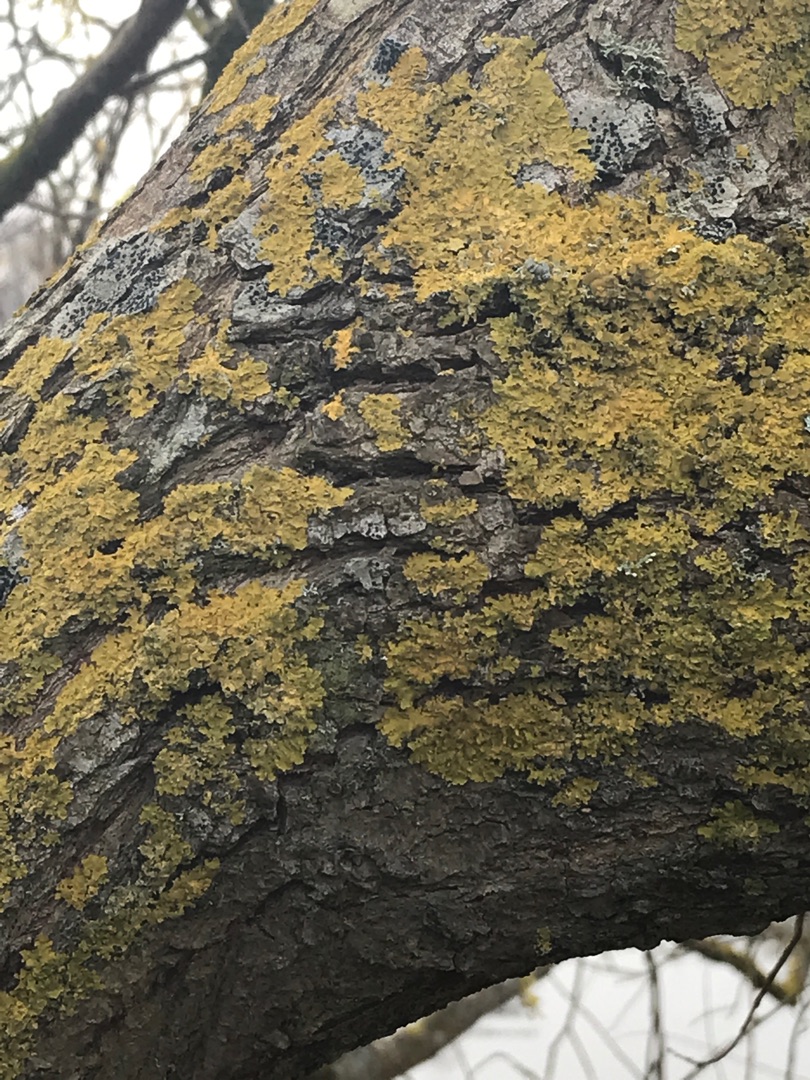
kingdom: Fungi
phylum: Ascomycota
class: Lecanoromycetes
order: Teloschistales
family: Teloschistaceae
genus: Xanthoria
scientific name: Xanthoria parietina
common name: Almindelig væggelav
